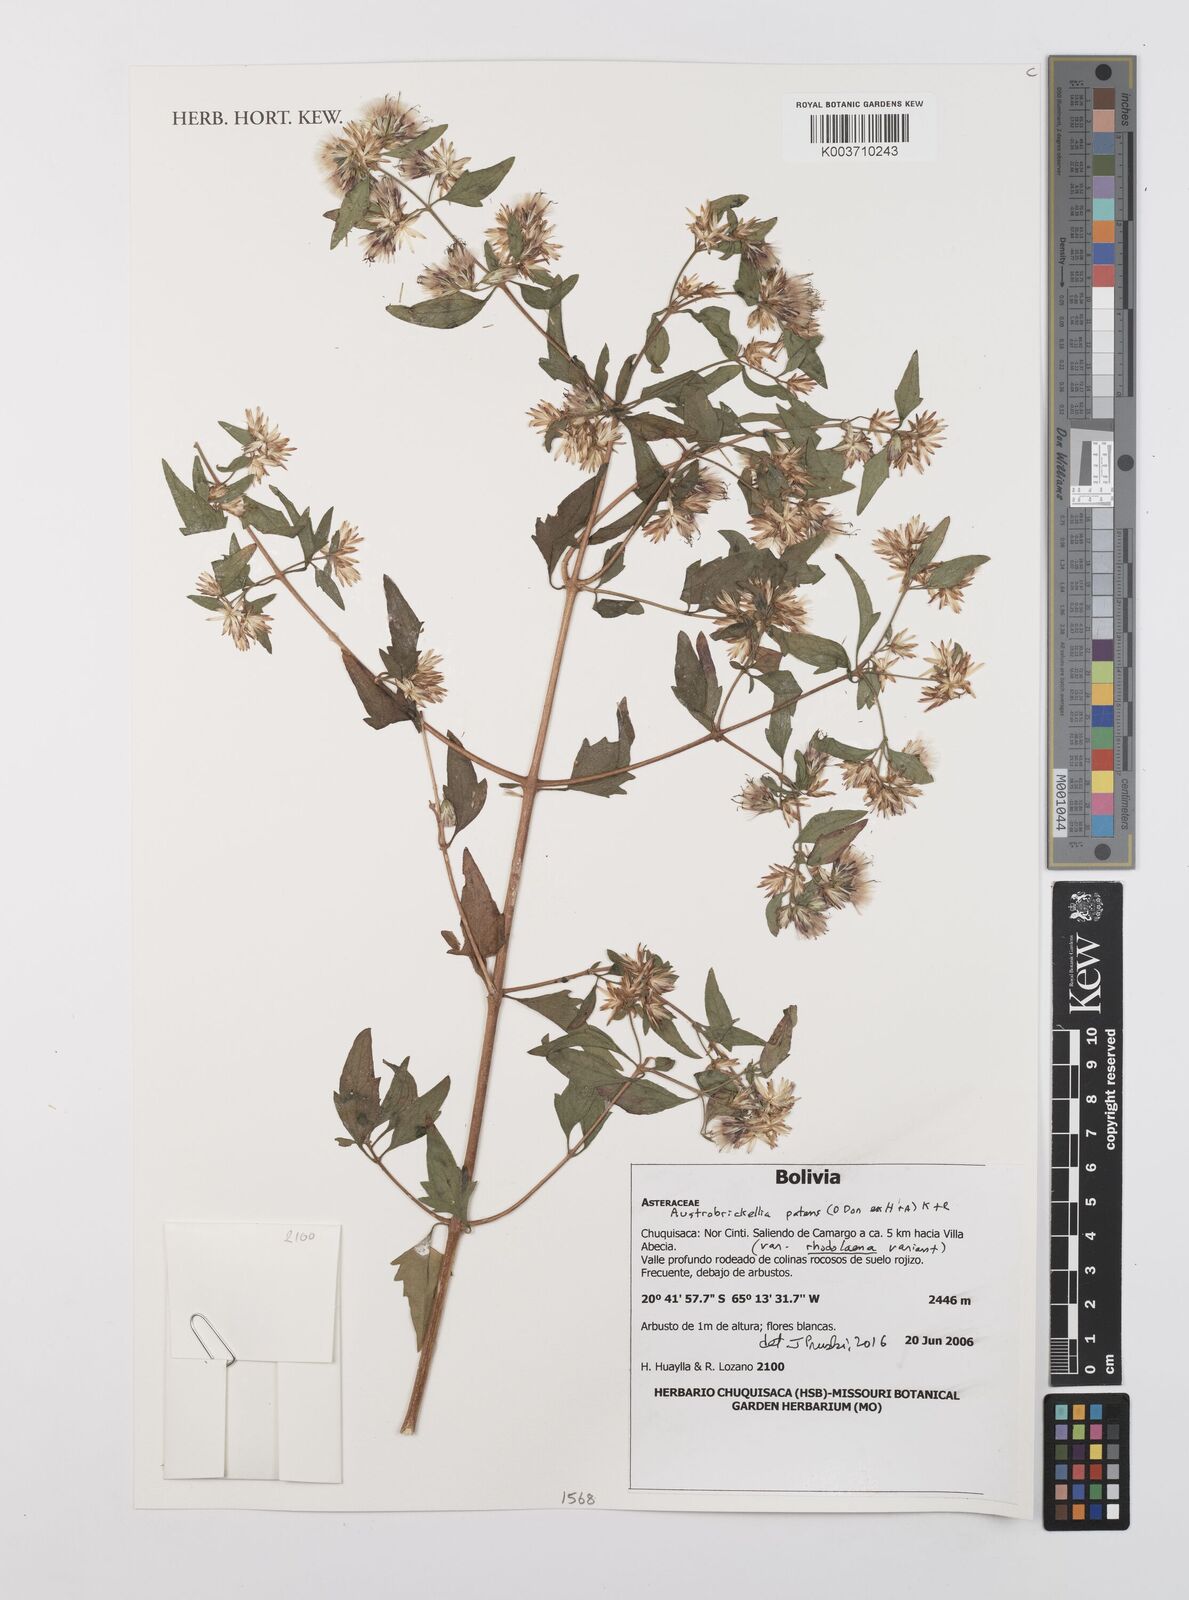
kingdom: Plantae
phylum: Tracheophyta
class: Magnoliopsida
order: Asterales
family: Asteraceae
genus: Austrobrickellia
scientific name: Austrobrickellia patens
